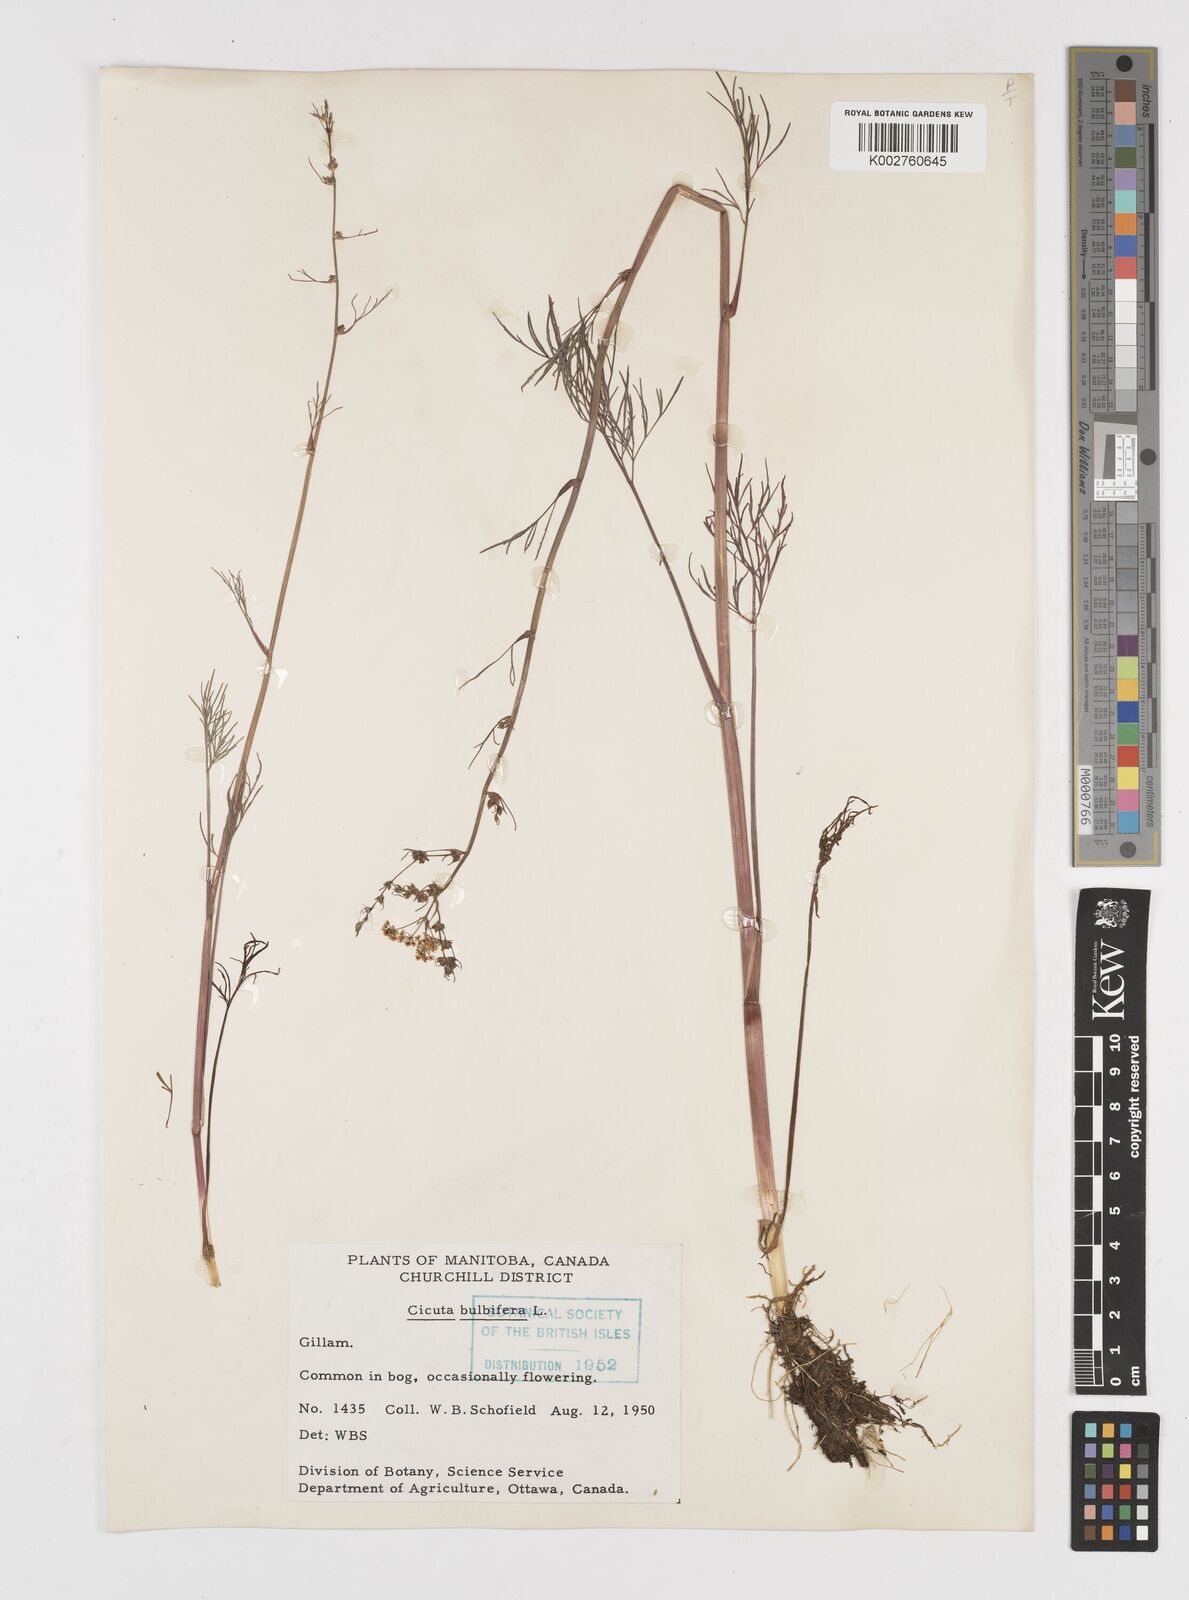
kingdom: Plantae
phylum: Tracheophyta
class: Magnoliopsida
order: Apiales
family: Apiaceae
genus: Cicuta
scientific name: Cicuta bulbifera
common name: Bulb-bearing water-hemlock
